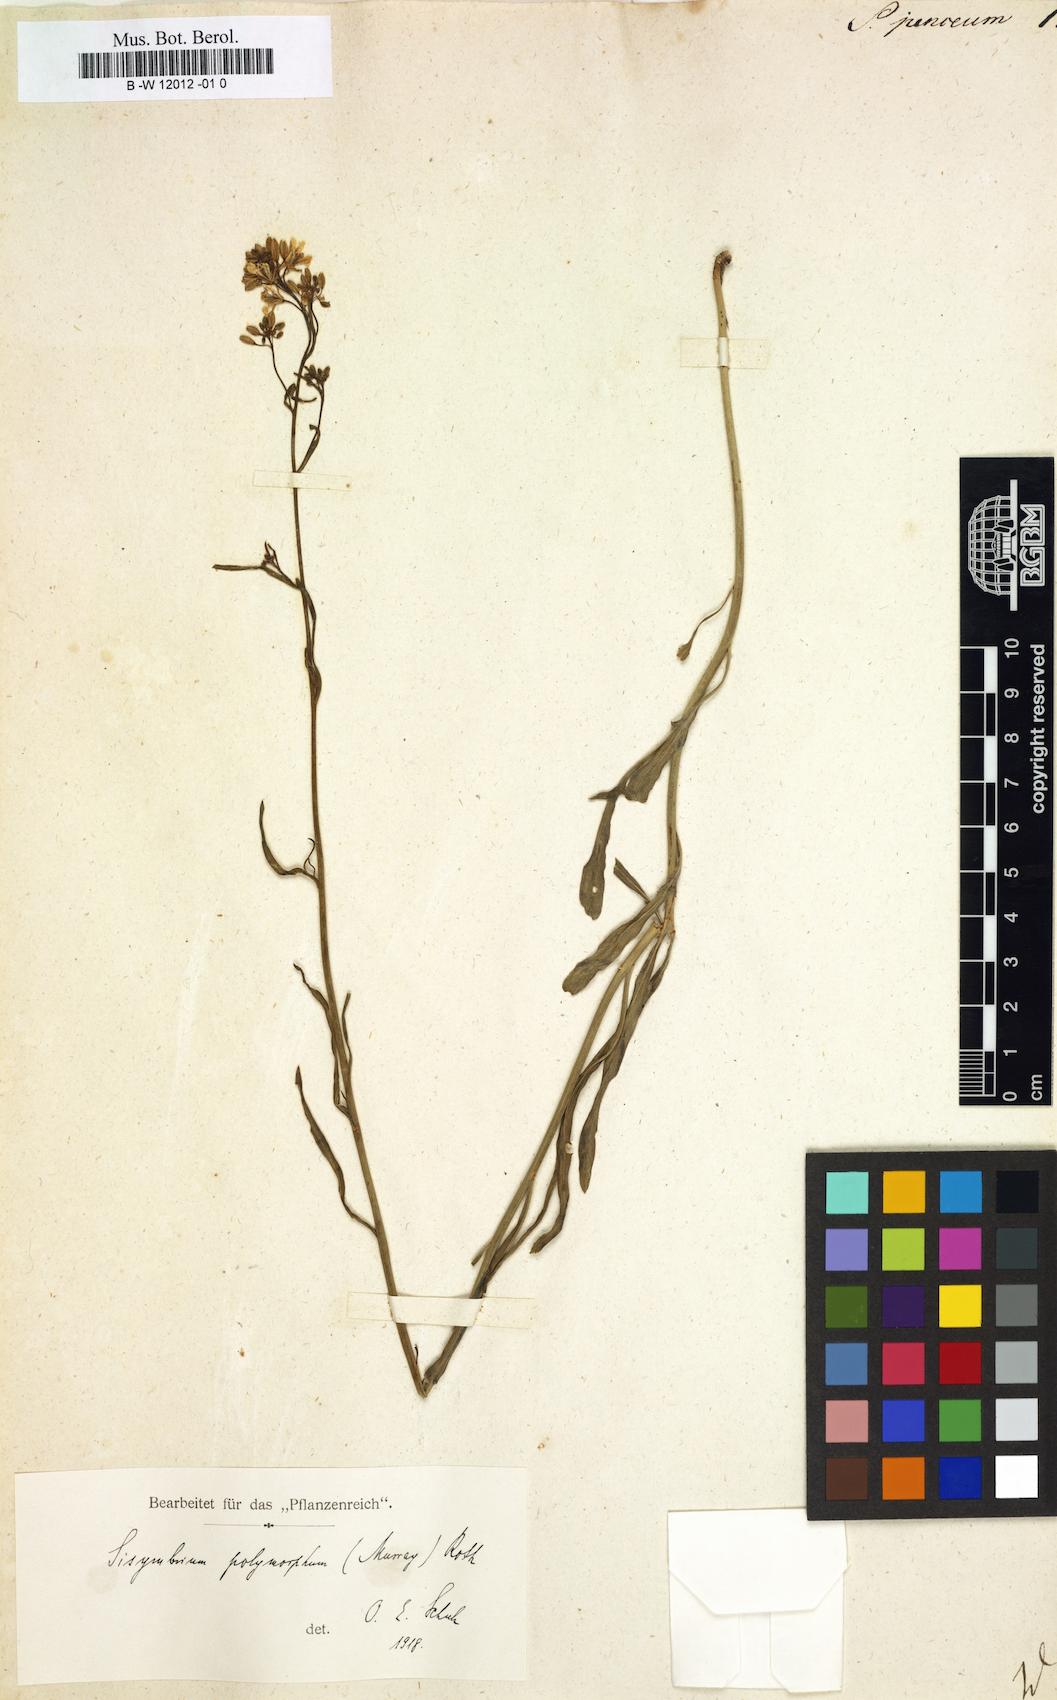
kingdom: Plantae
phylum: Tracheophyta
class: Magnoliopsida
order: Brassicales
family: Brassicaceae
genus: Sisymbrium
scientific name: Sisymbrium
